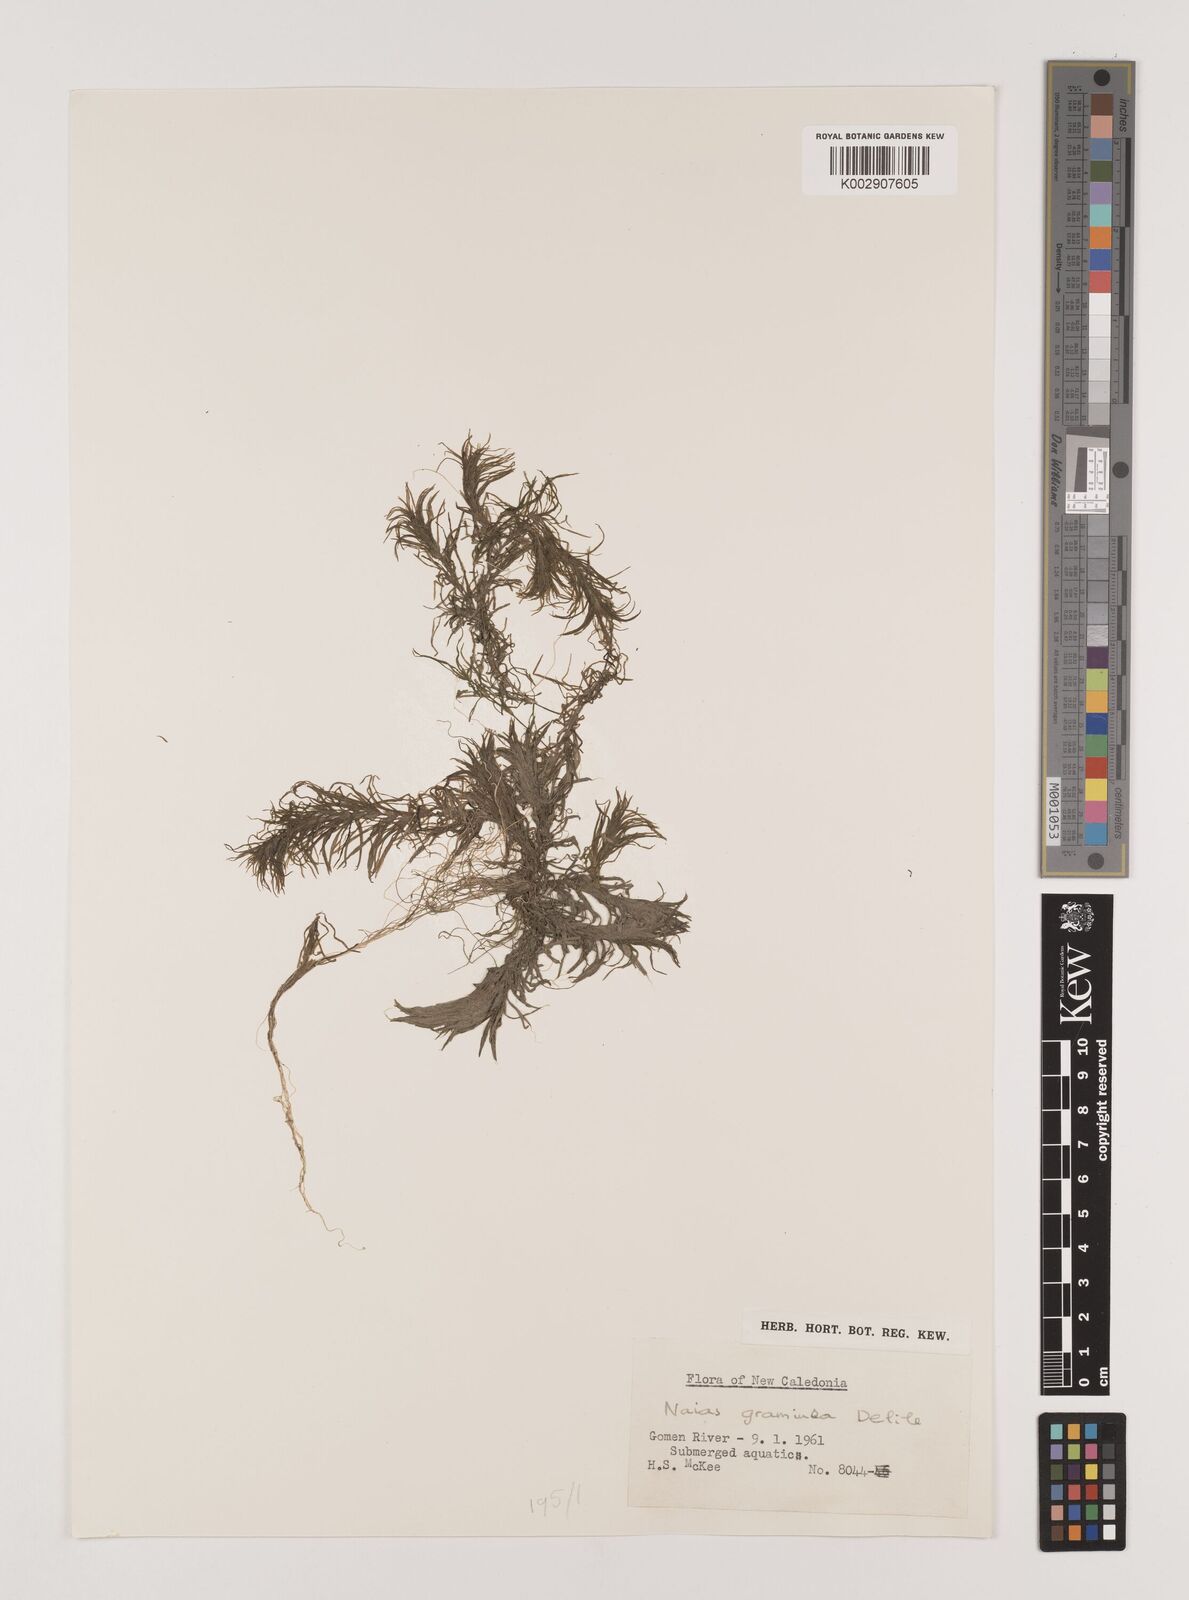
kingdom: Plantae
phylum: Tracheophyta
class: Liliopsida
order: Alismatales
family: Hydrocharitaceae
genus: Najas
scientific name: Najas graminea
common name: Ricefield waternymph
